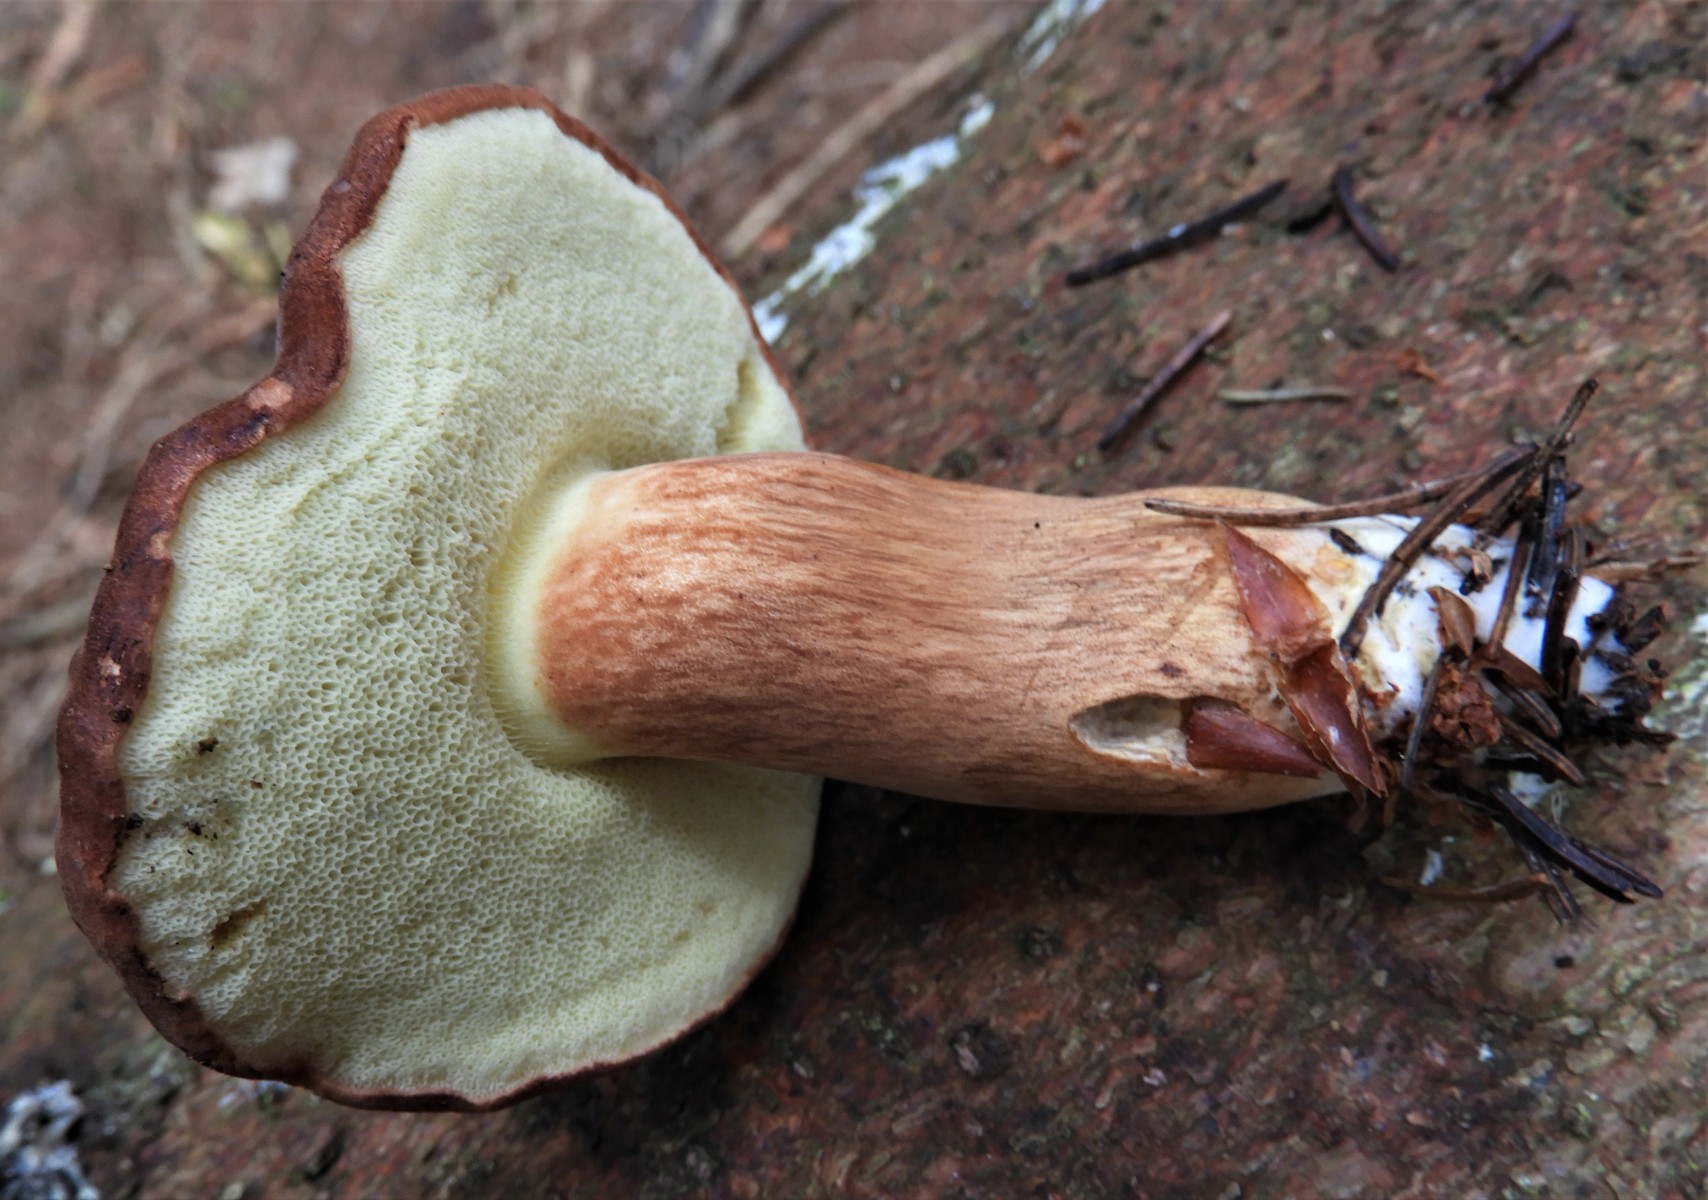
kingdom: Fungi
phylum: Basidiomycota
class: Agaricomycetes
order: Boletales
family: Boletaceae
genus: Imleria
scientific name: Imleria badia
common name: brunstokket rørhat
